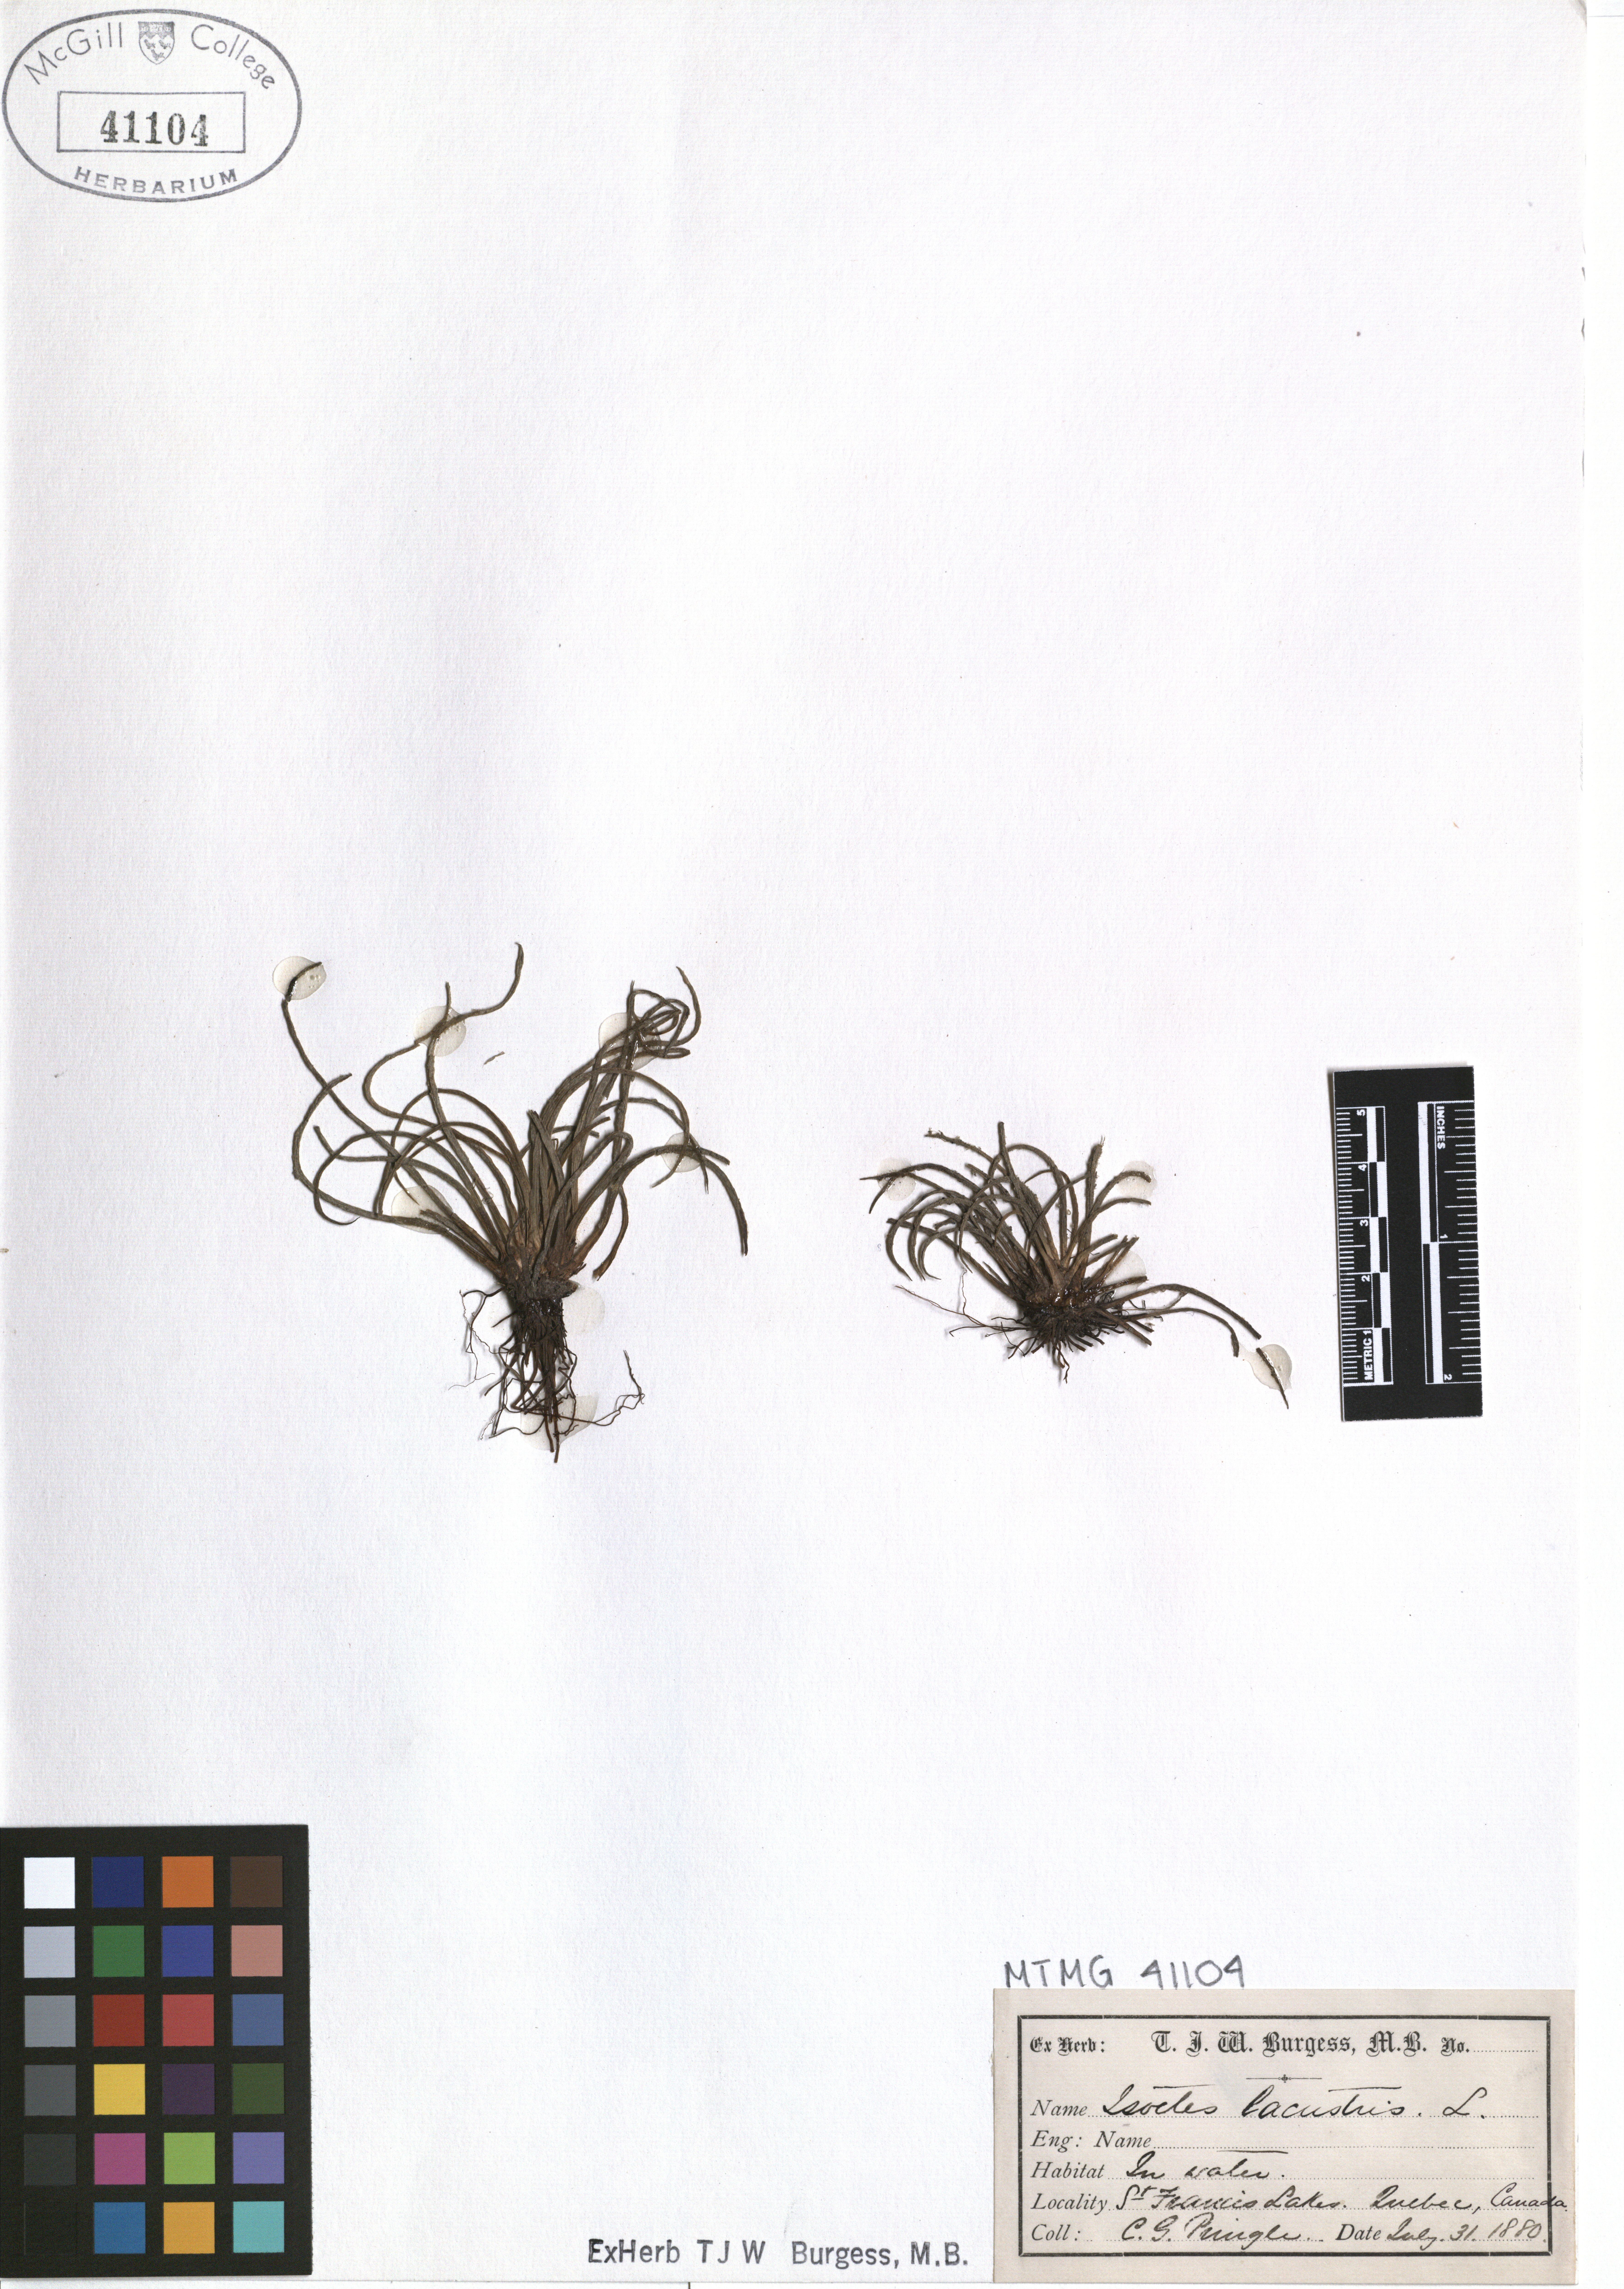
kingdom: Plantae
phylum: Tracheophyta
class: Lycopodiopsida
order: Isoetales
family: Isoetaceae
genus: Isoetes
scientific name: Isoetes lacustris
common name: Common quillwort
